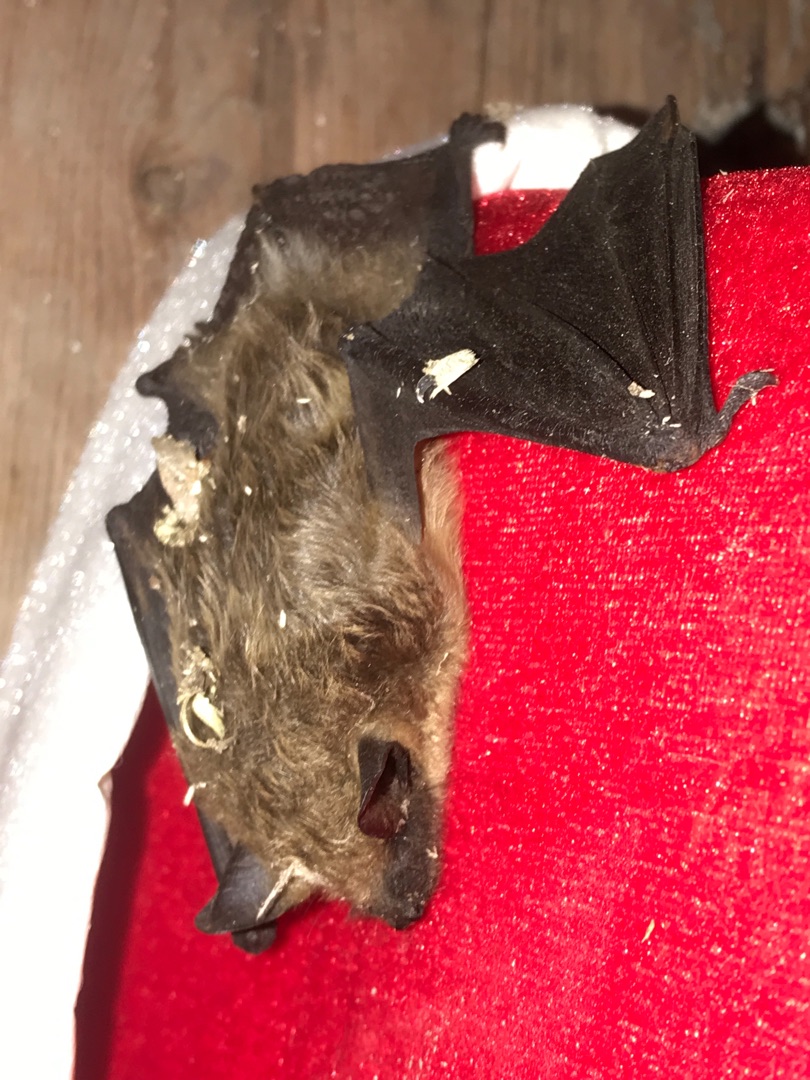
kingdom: Animalia
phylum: Chordata
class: Mammalia
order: Chiroptera
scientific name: Chiroptera
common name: Flagermus
